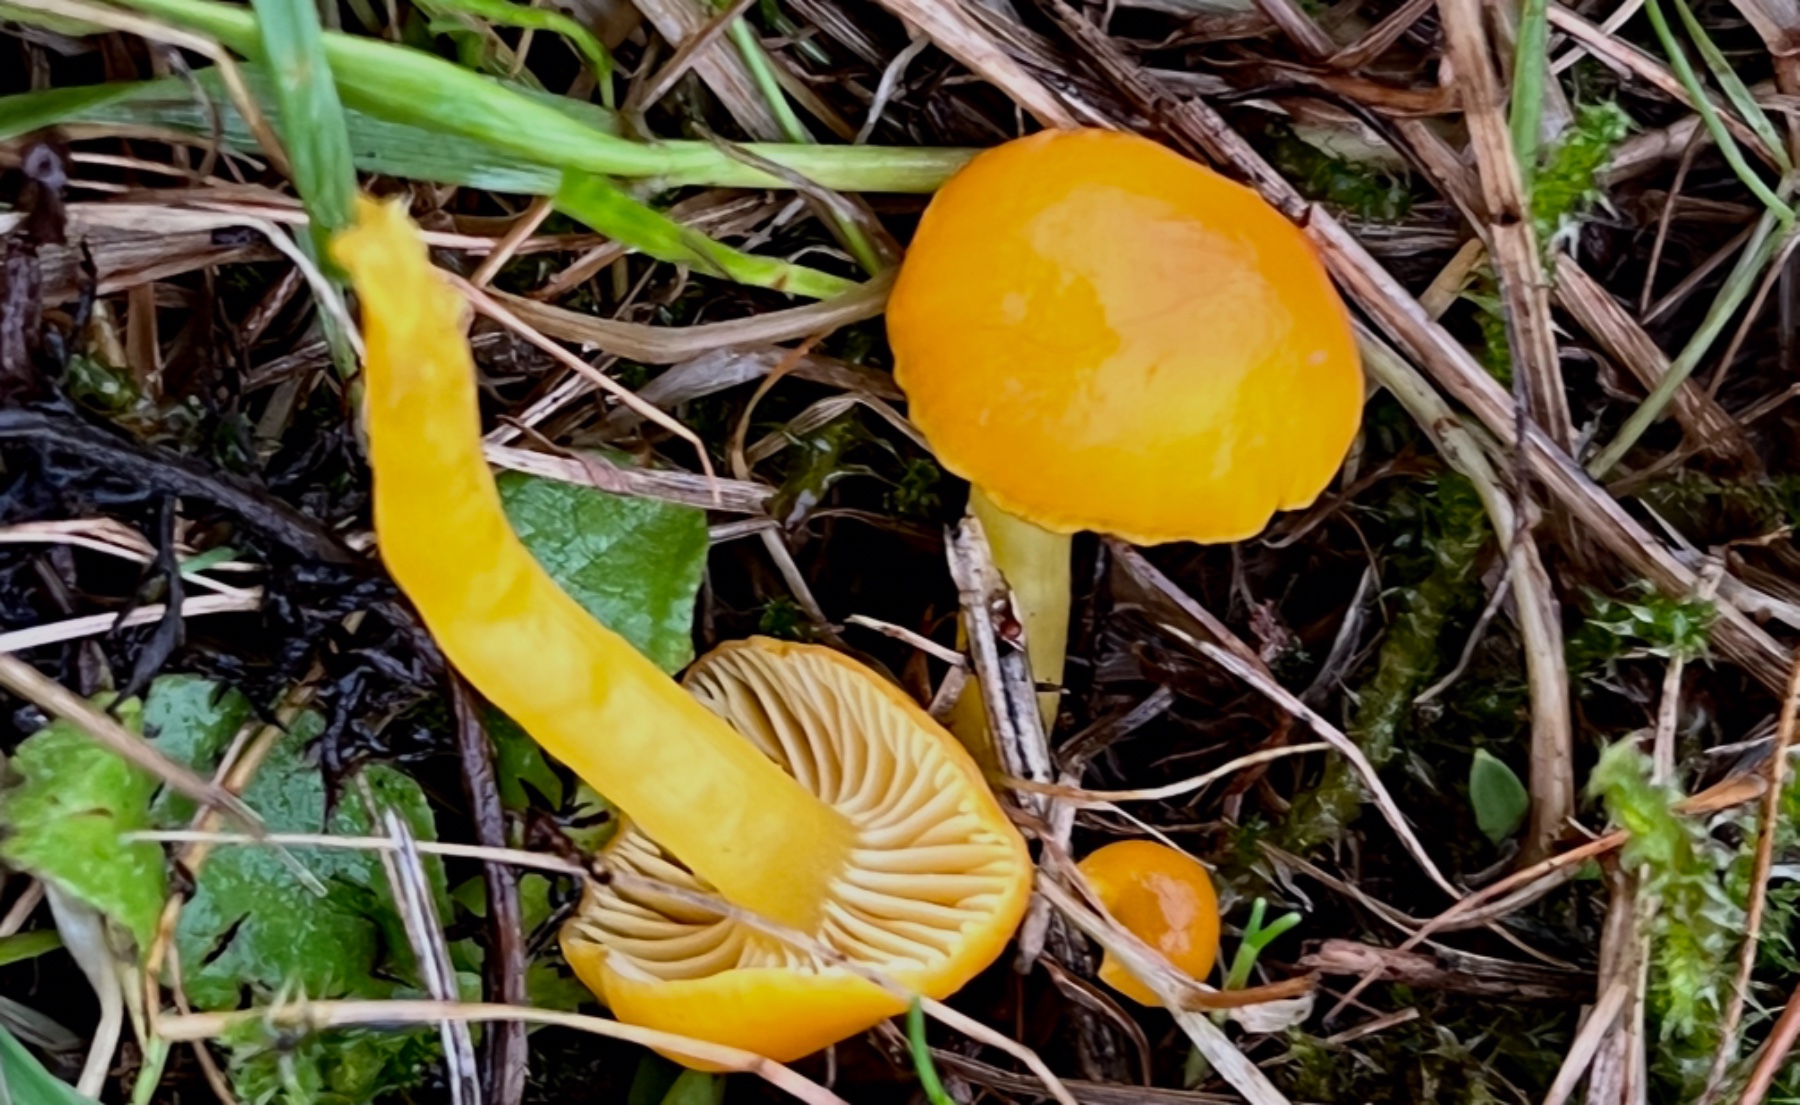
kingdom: Fungi
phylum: Basidiomycota
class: Agaricomycetes
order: Agaricales
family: Hygrophoraceae
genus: Hygrocybe
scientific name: Hygrocybe ceracea
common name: voksgul vokshat
